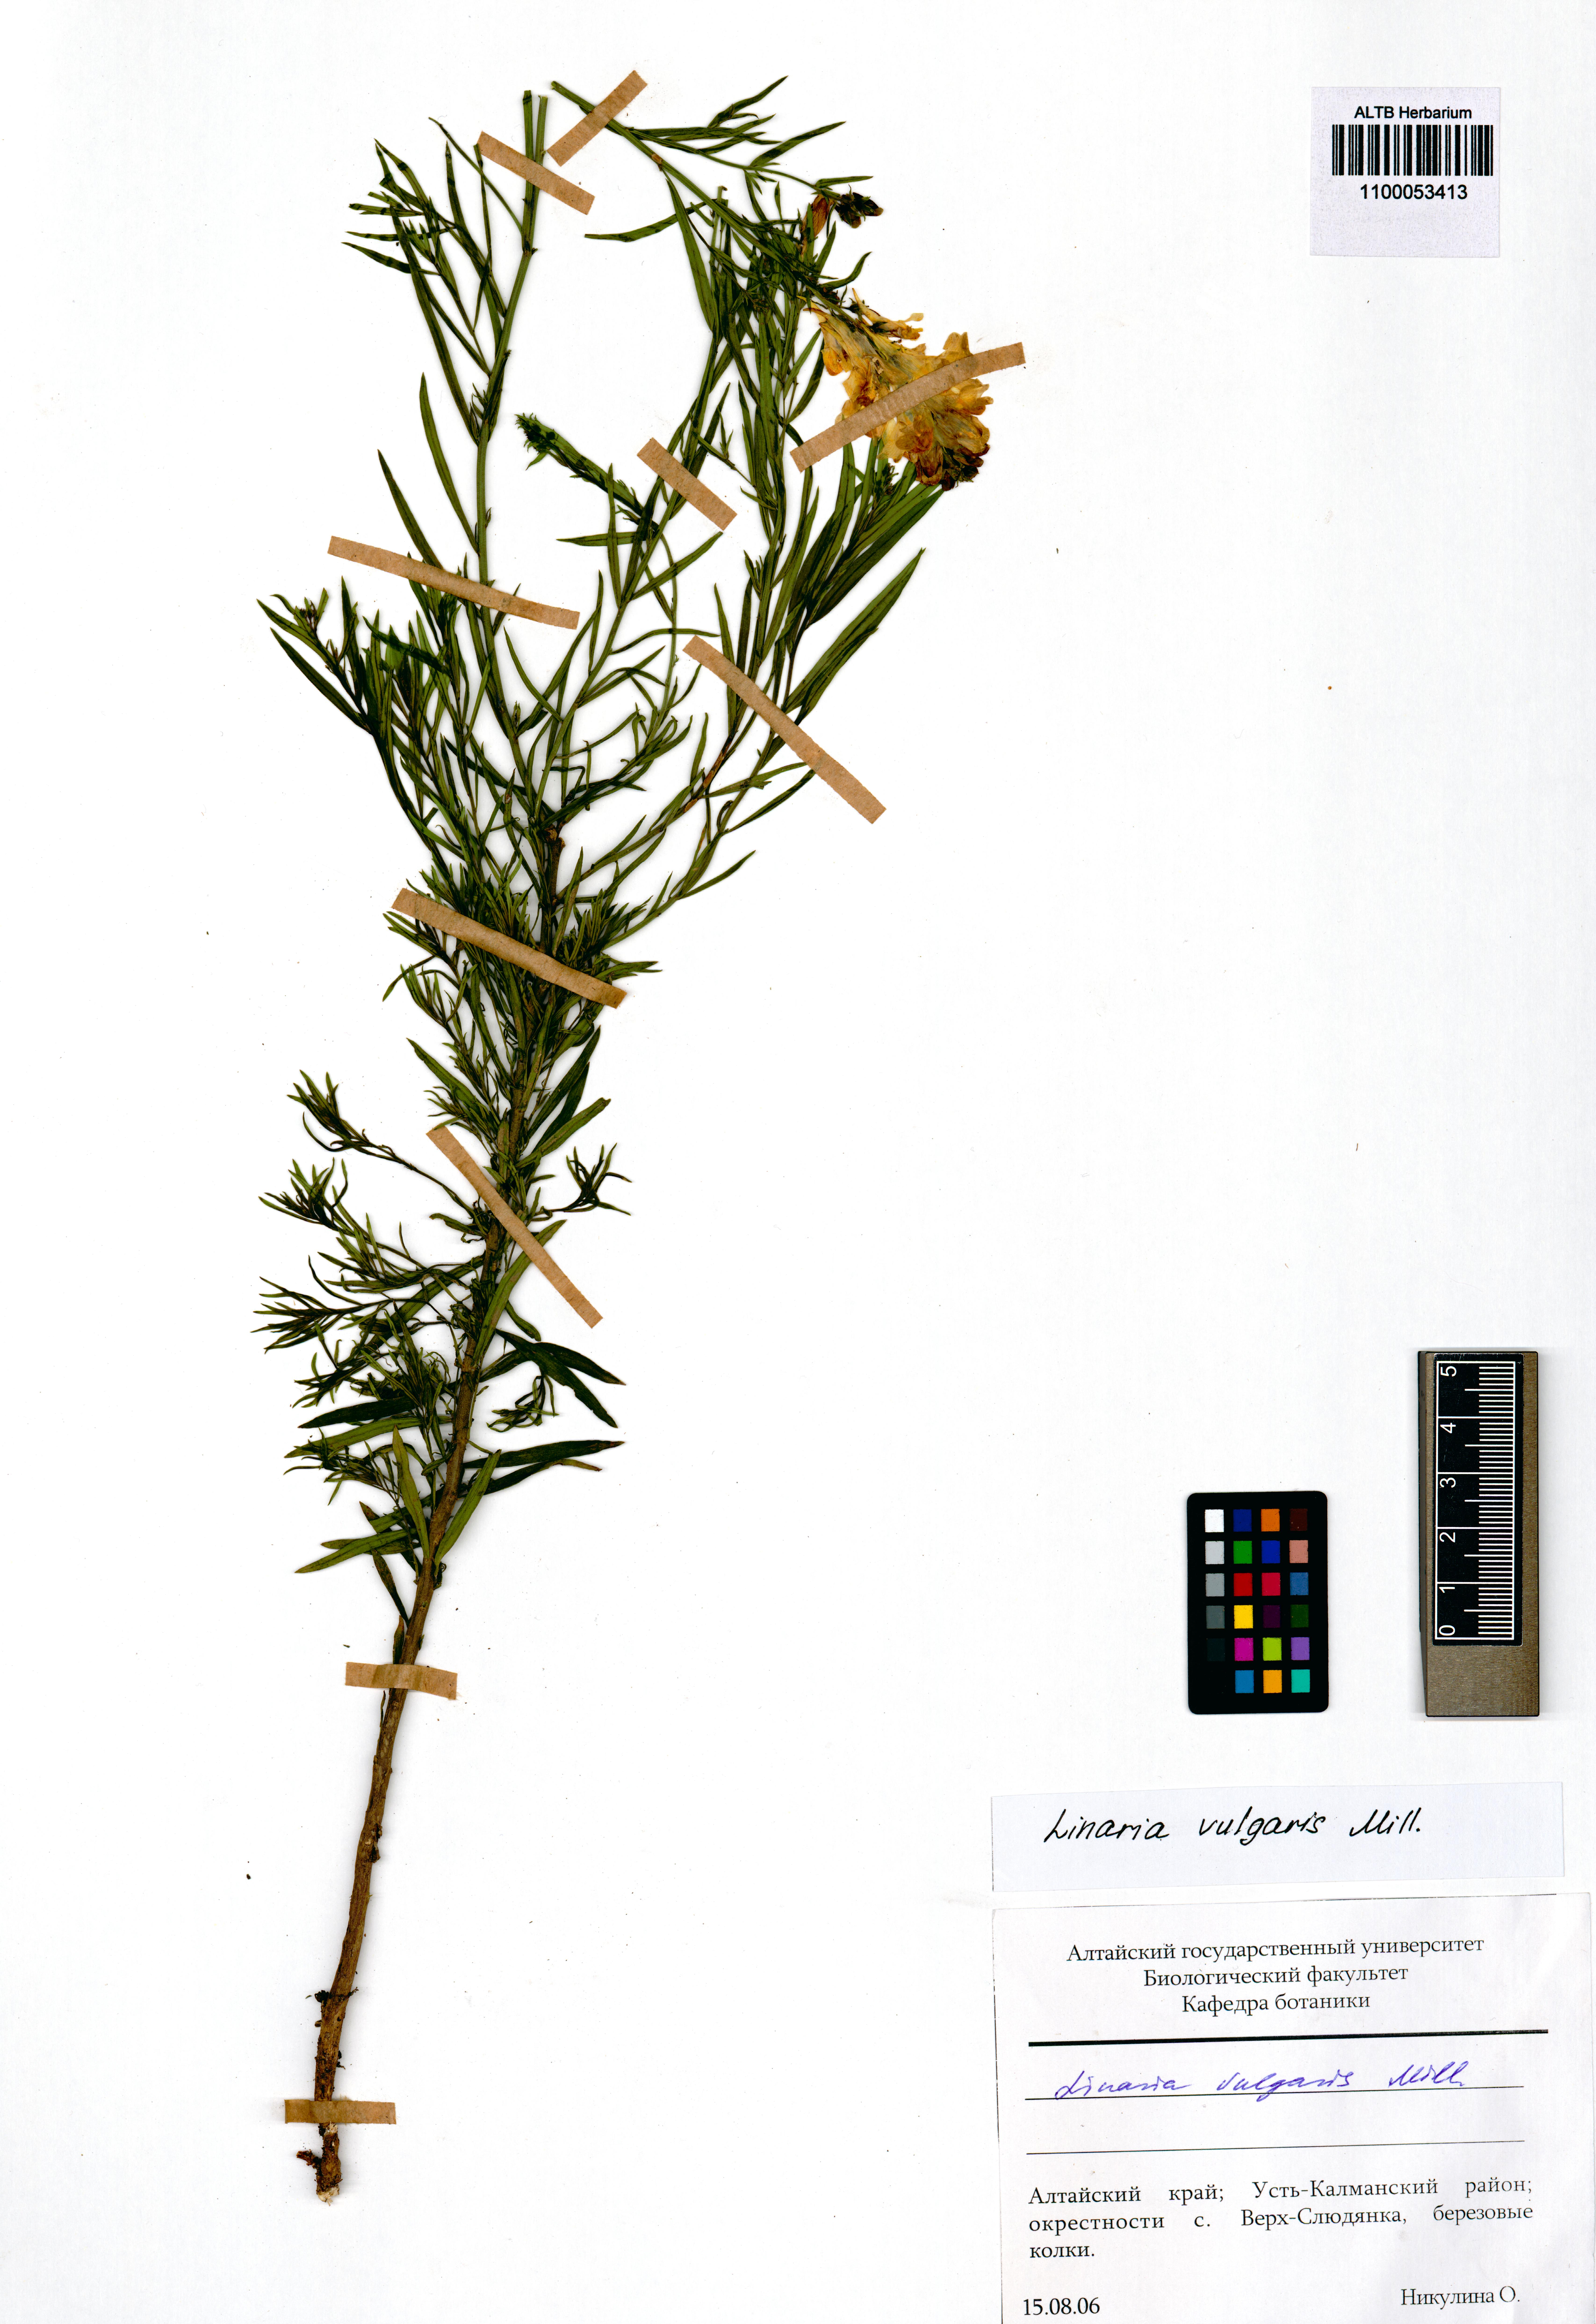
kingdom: Plantae
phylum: Tracheophyta
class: Magnoliopsida
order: Lamiales
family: Plantaginaceae
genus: Linaria
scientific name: Linaria vulgaris
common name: Butter and eggs
